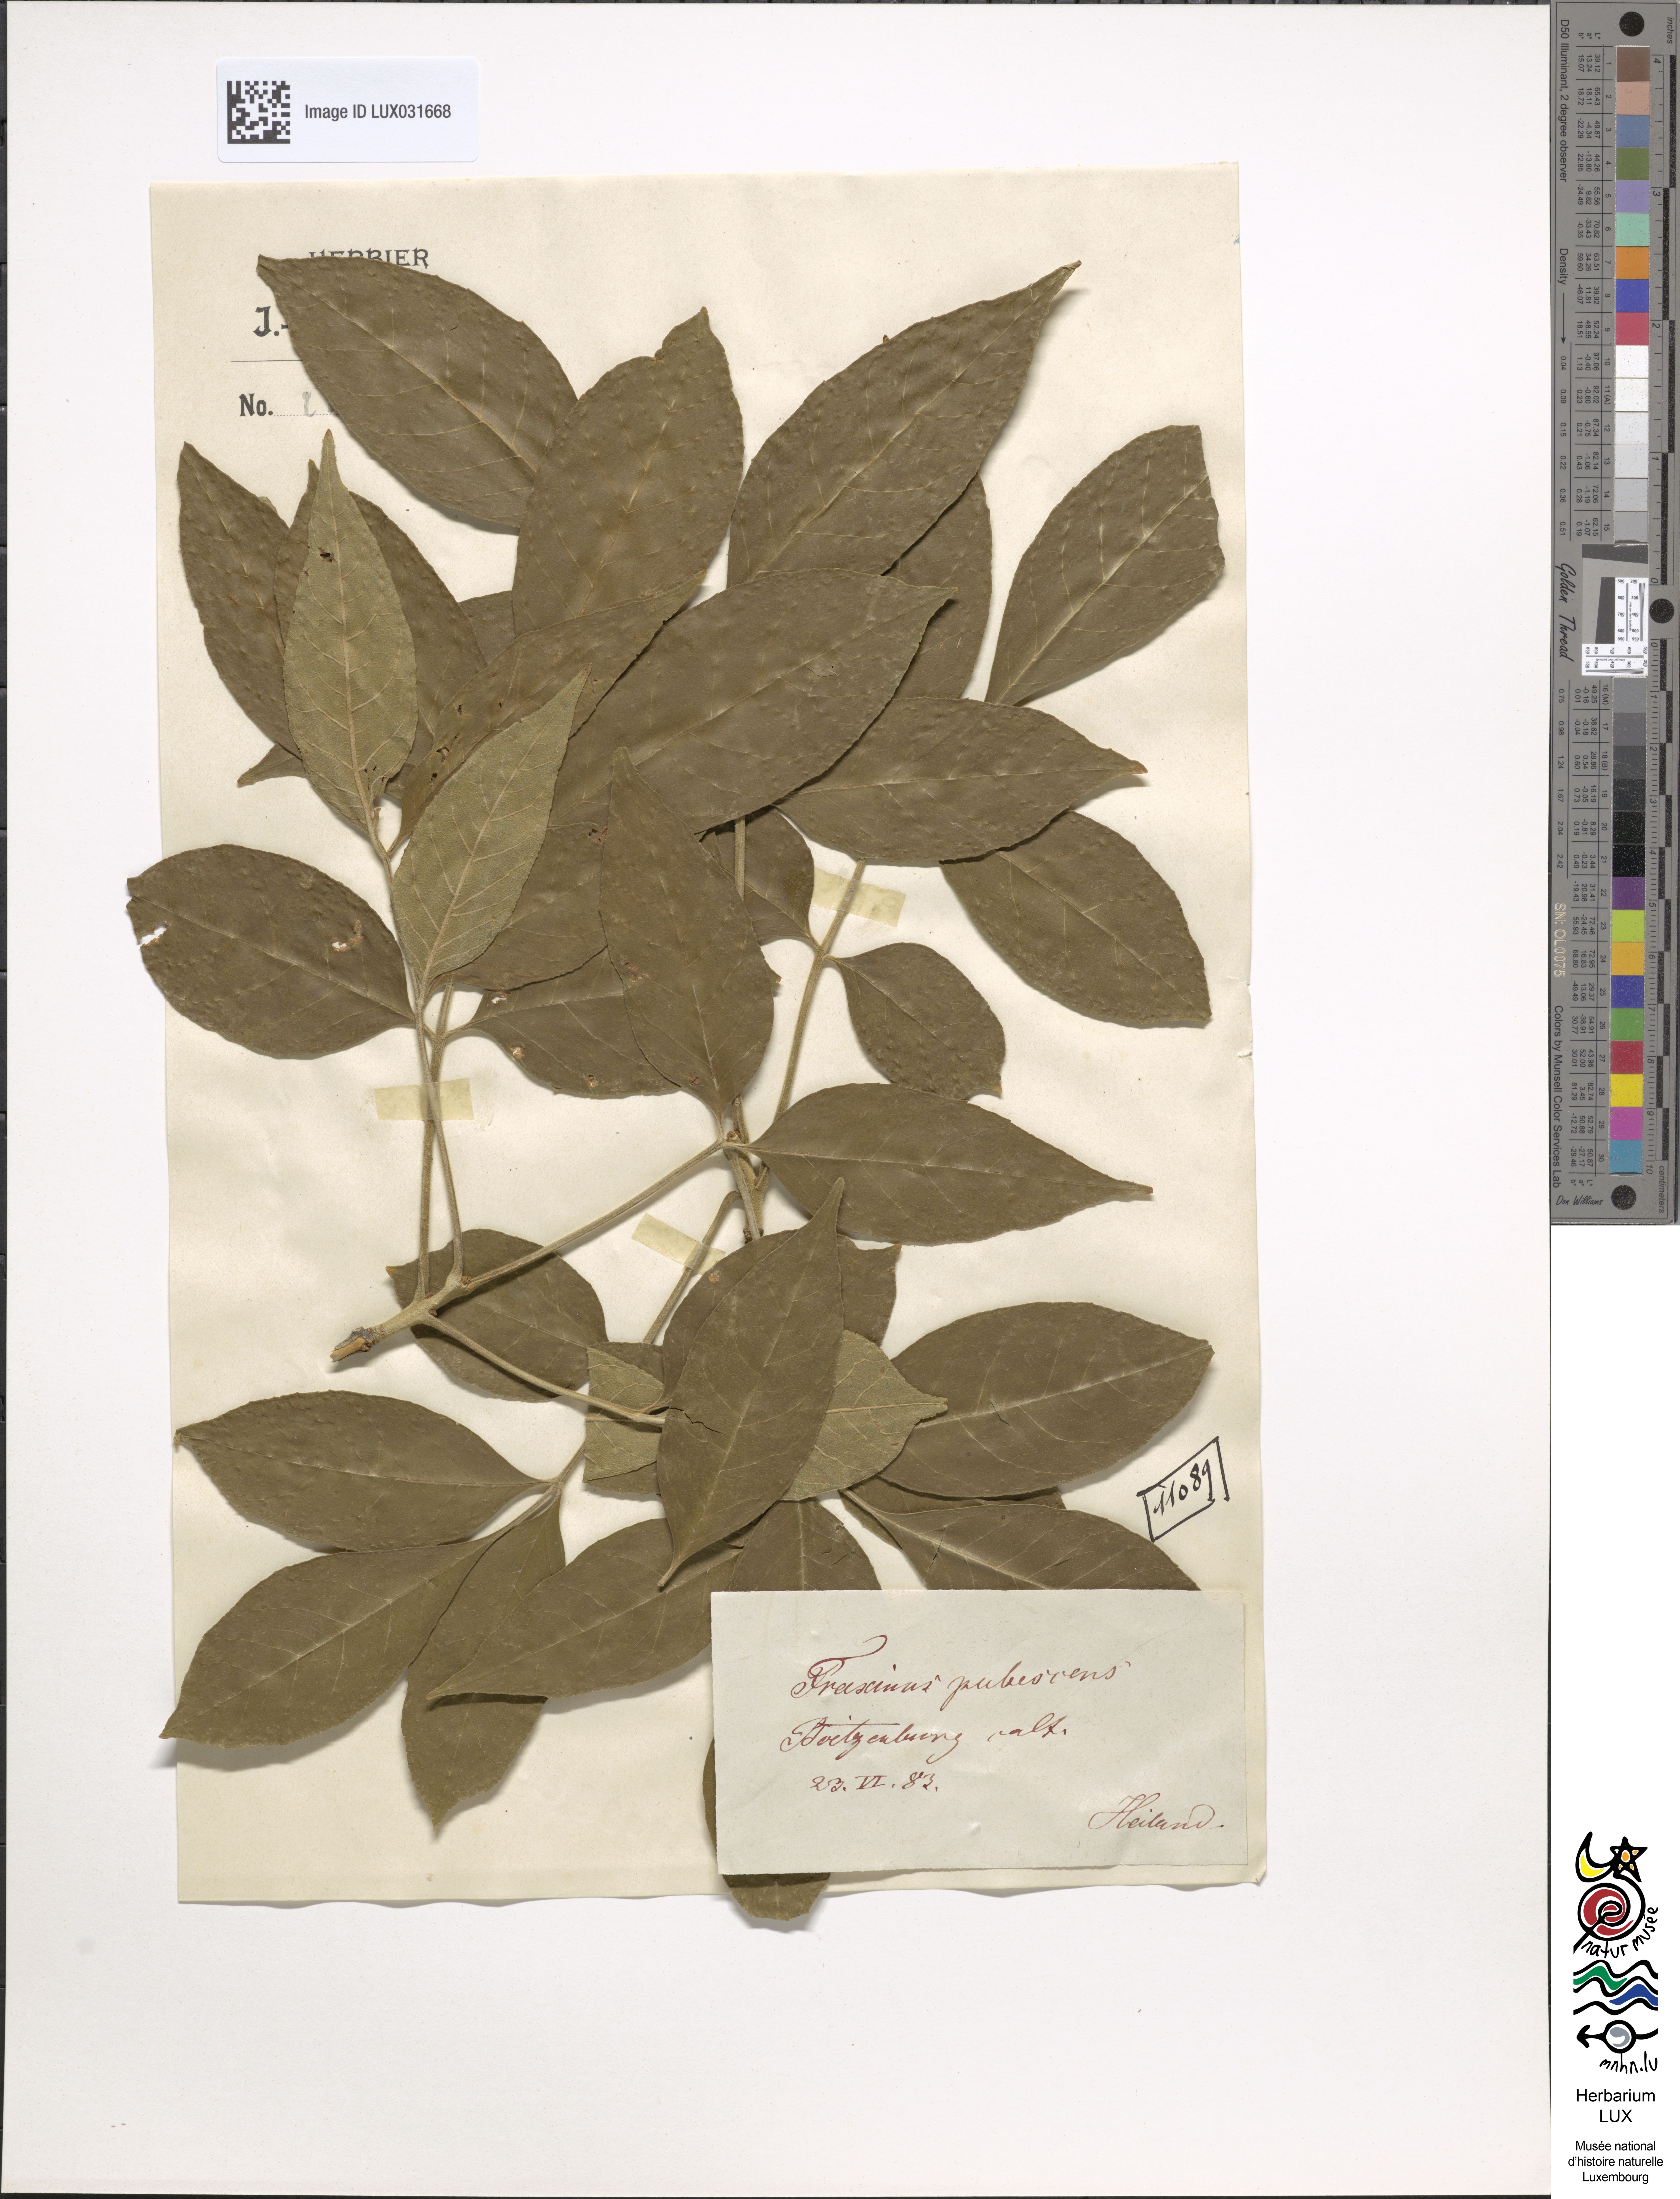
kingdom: Plantae
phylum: Tracheophyta
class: Magnoliopsida
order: Lamiales
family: Oleaceae
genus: Fraxinus
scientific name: Fraxinus pubescens
